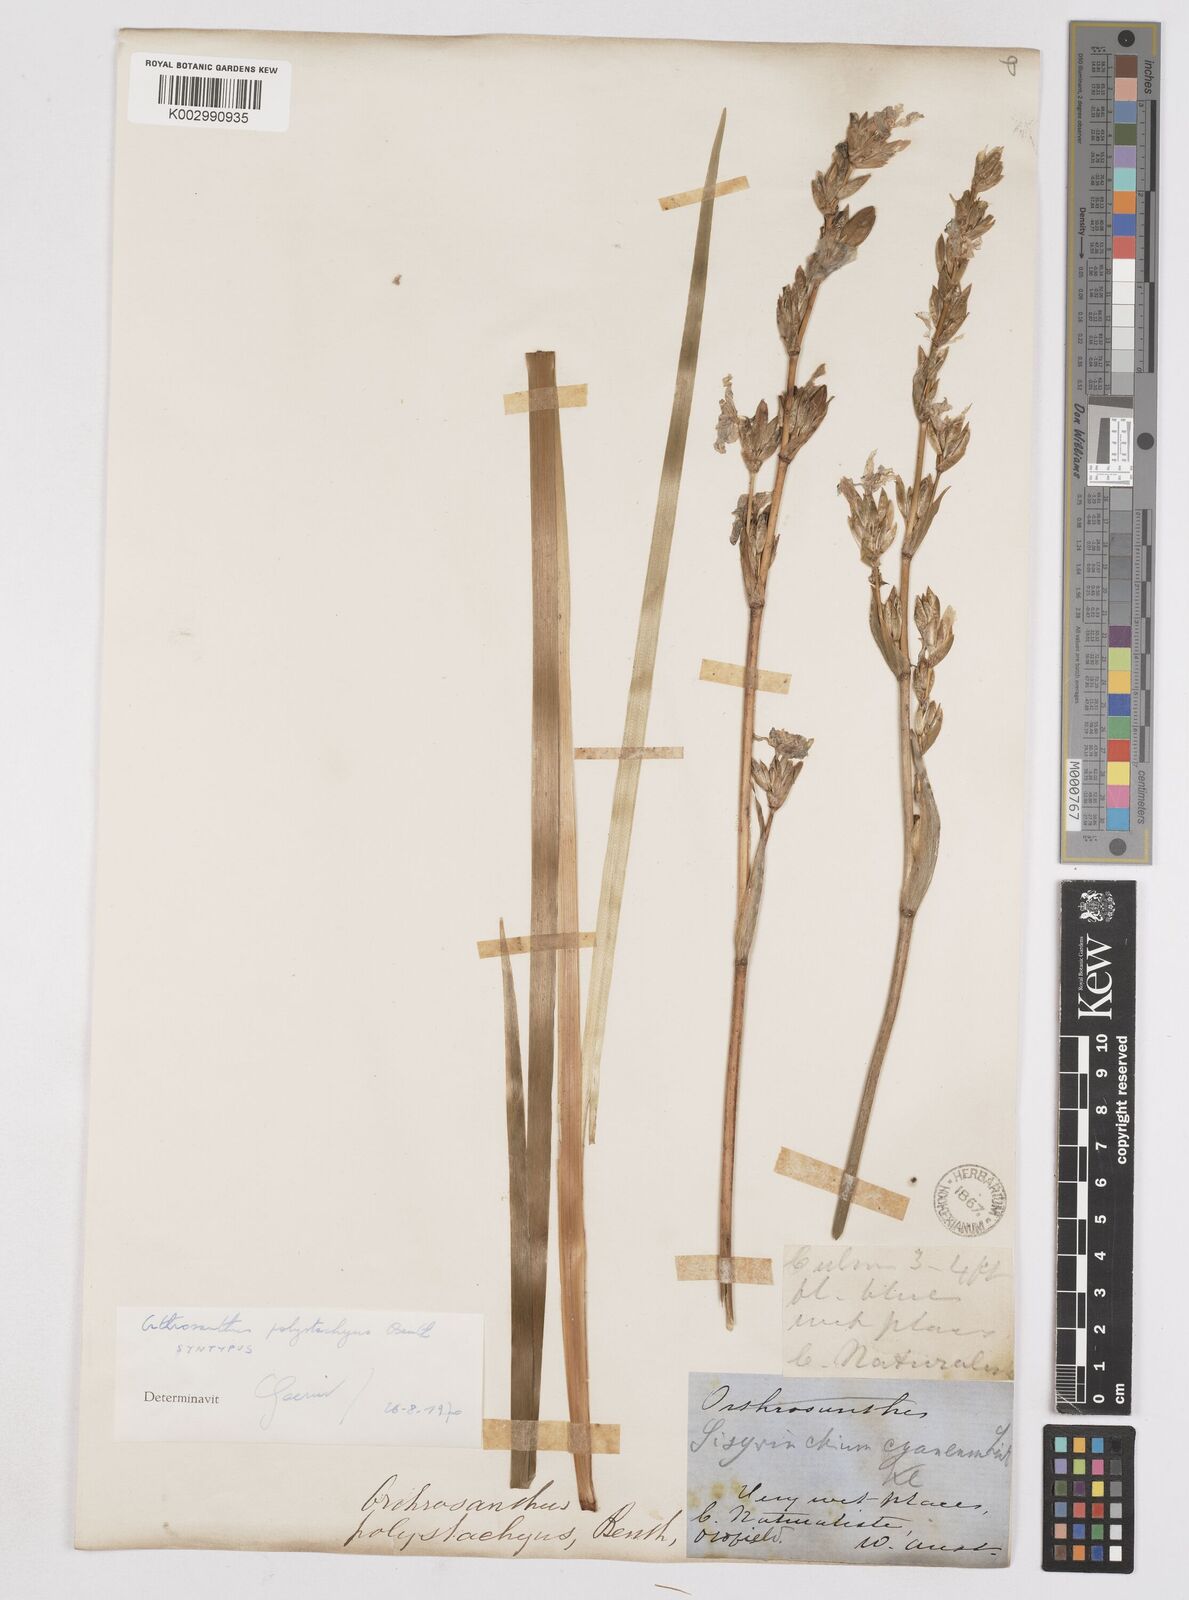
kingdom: Plantae
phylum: Tracheophyta
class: Liliopsida
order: Asparagales
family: Iridaceae
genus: Orthrosanthus
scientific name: Orthrosanthus polystachyus
